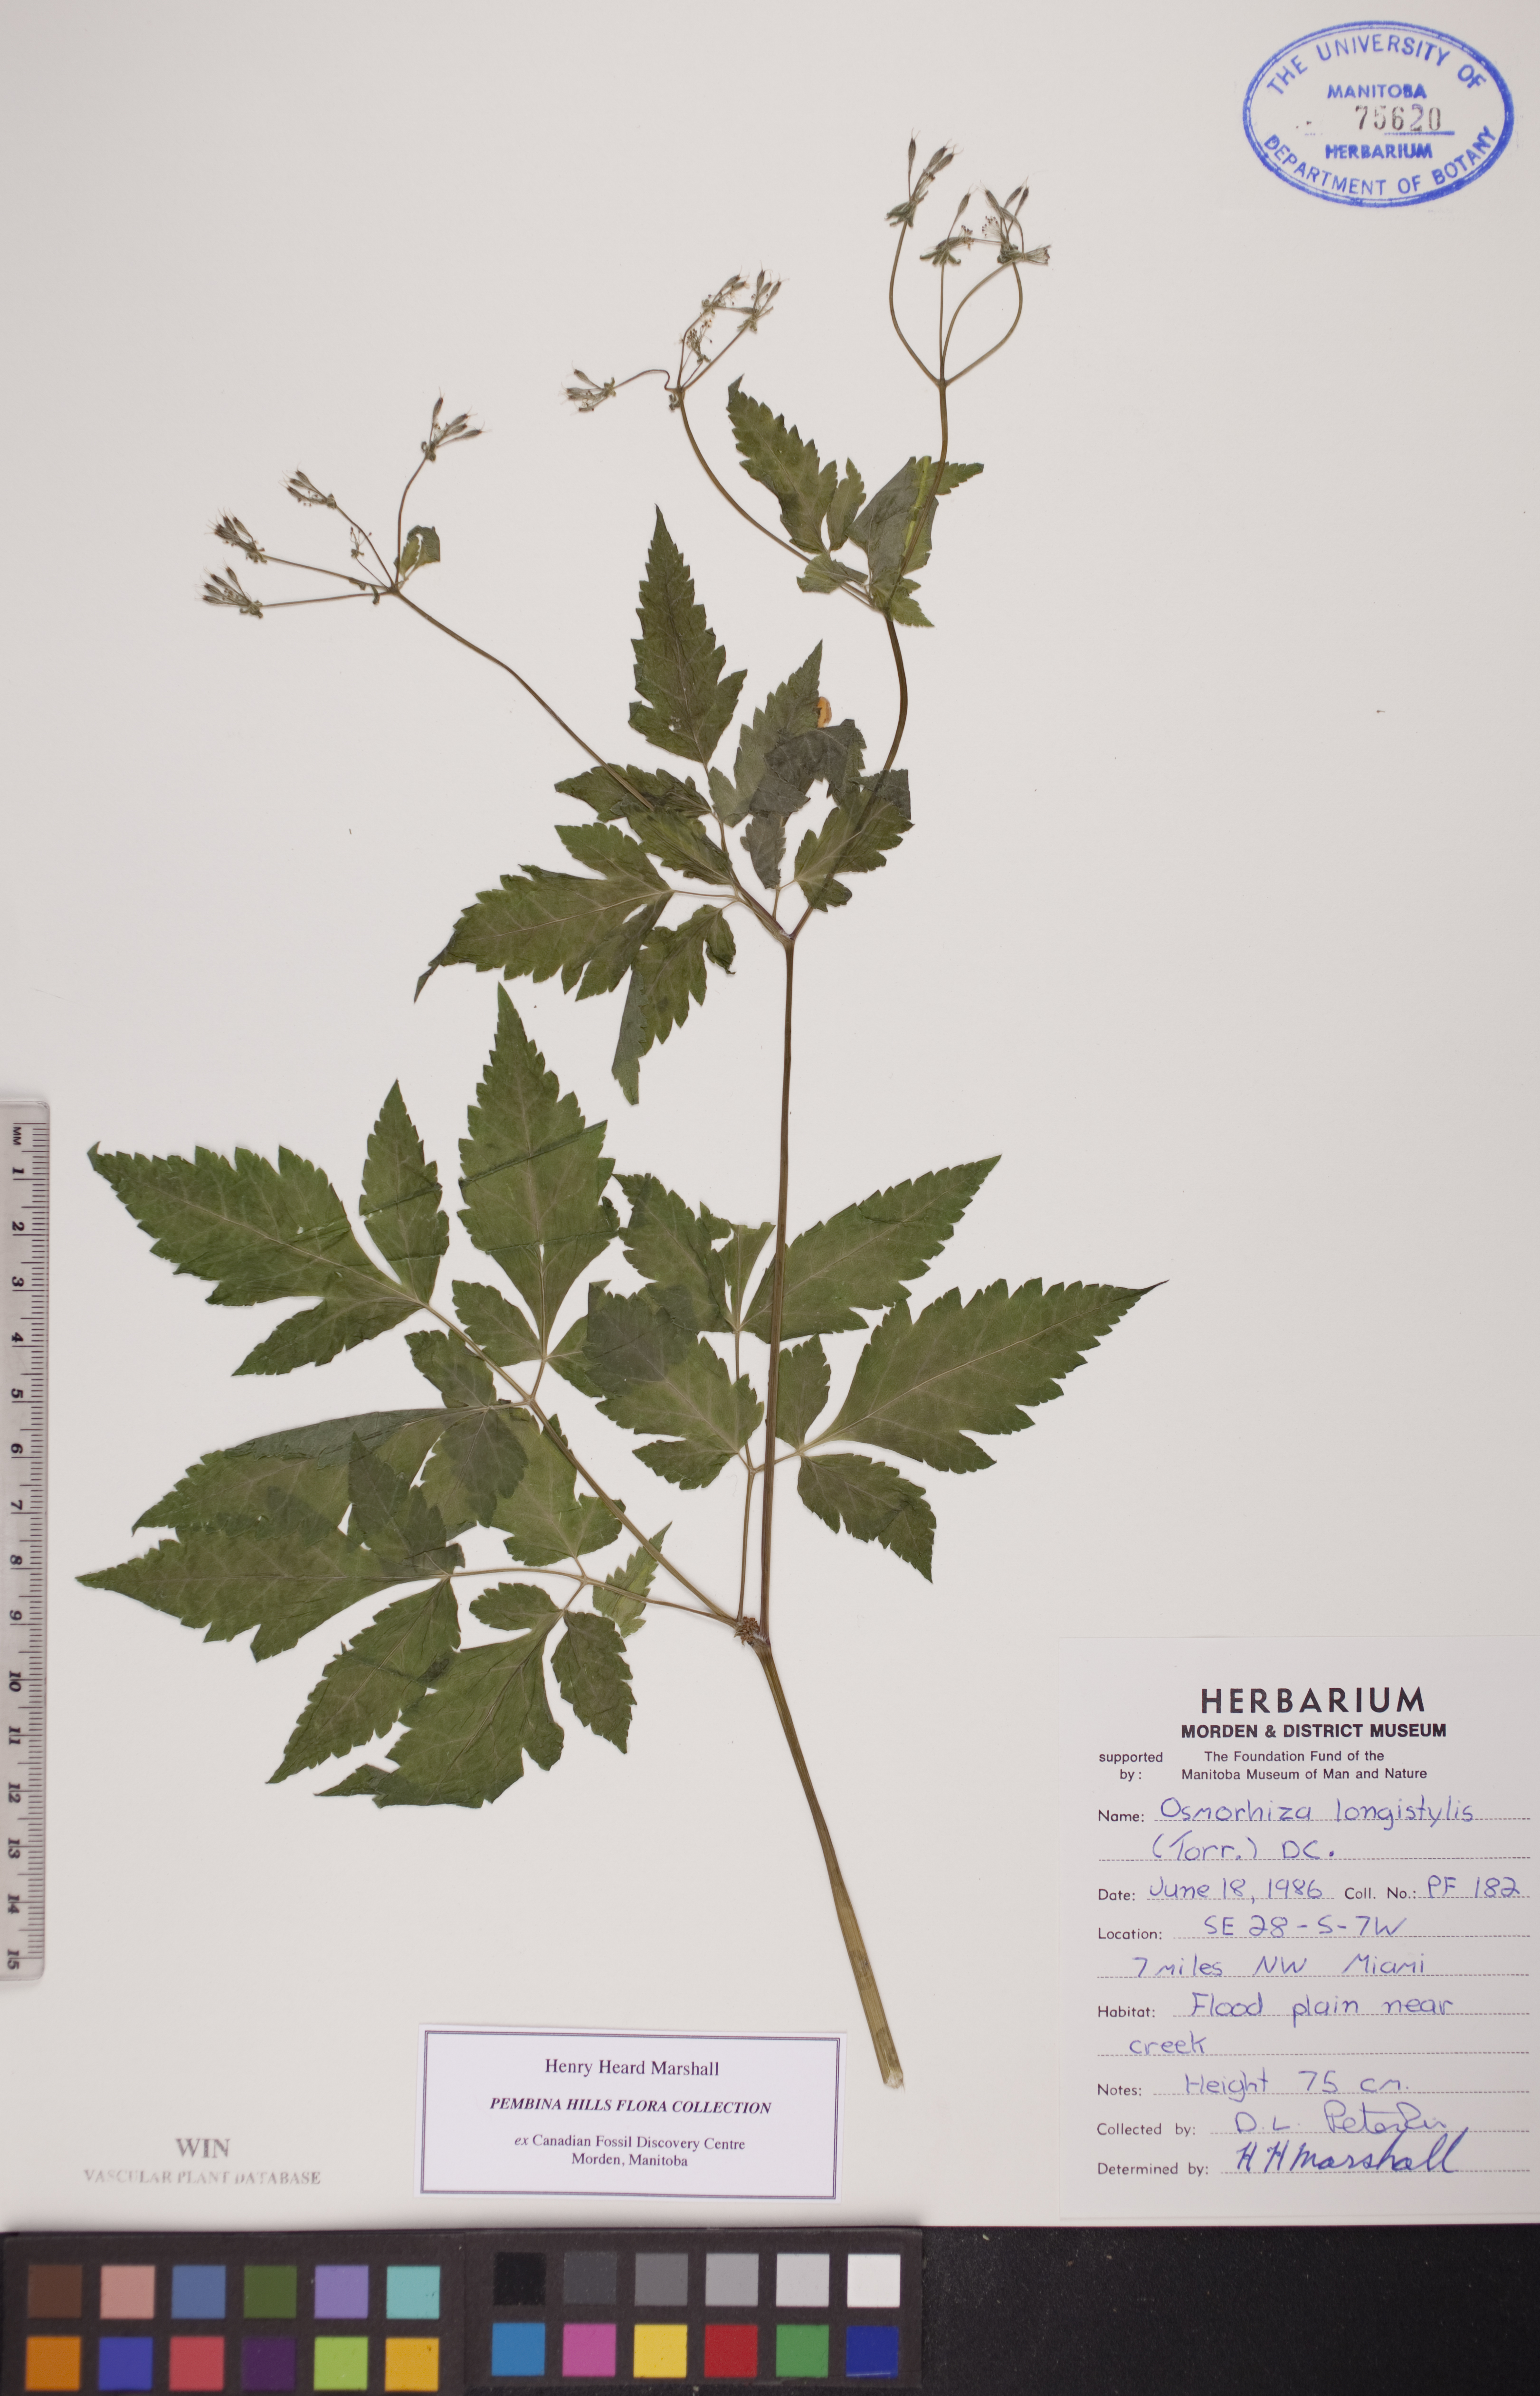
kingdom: Plantae
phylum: Tracheophyta
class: Magnoliopsida
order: Apiales
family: Apiaceae
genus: Osmorhiza
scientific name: Osmorhiza longistylis
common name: Smooth sweet cicely
